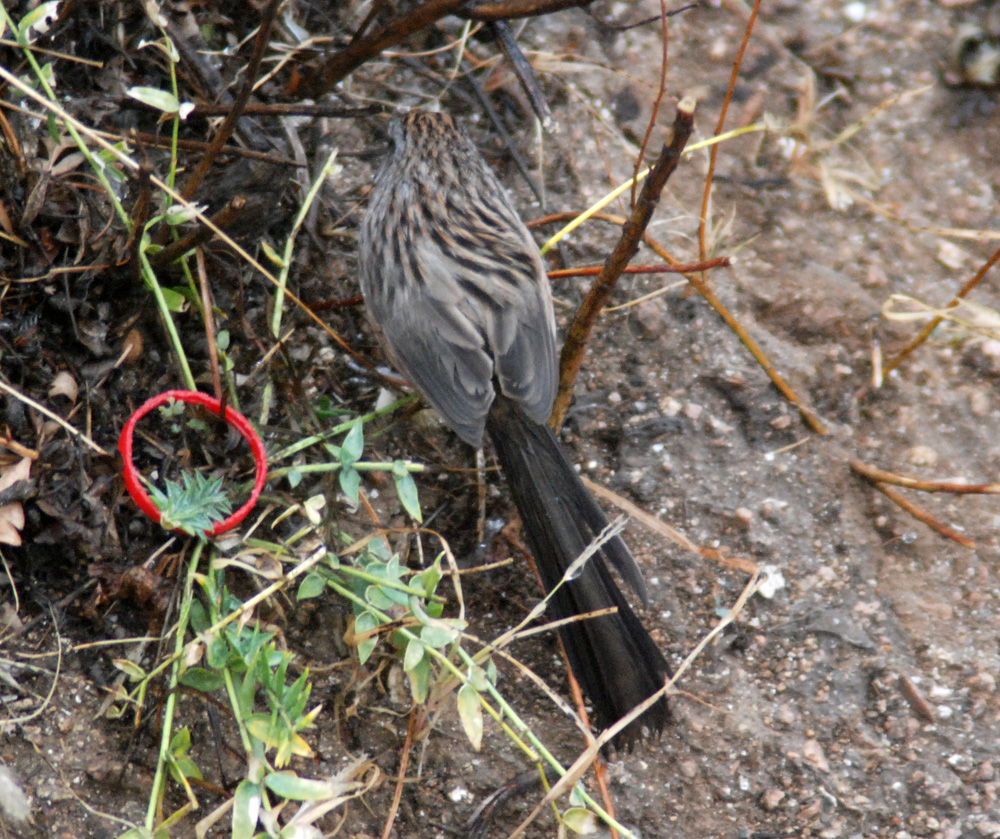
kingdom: Animalia
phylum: Chordata
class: Aves
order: Passeriformes
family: Certhiidae
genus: Certhia
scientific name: Certhia familiaris
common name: Eurasian treecreeper
